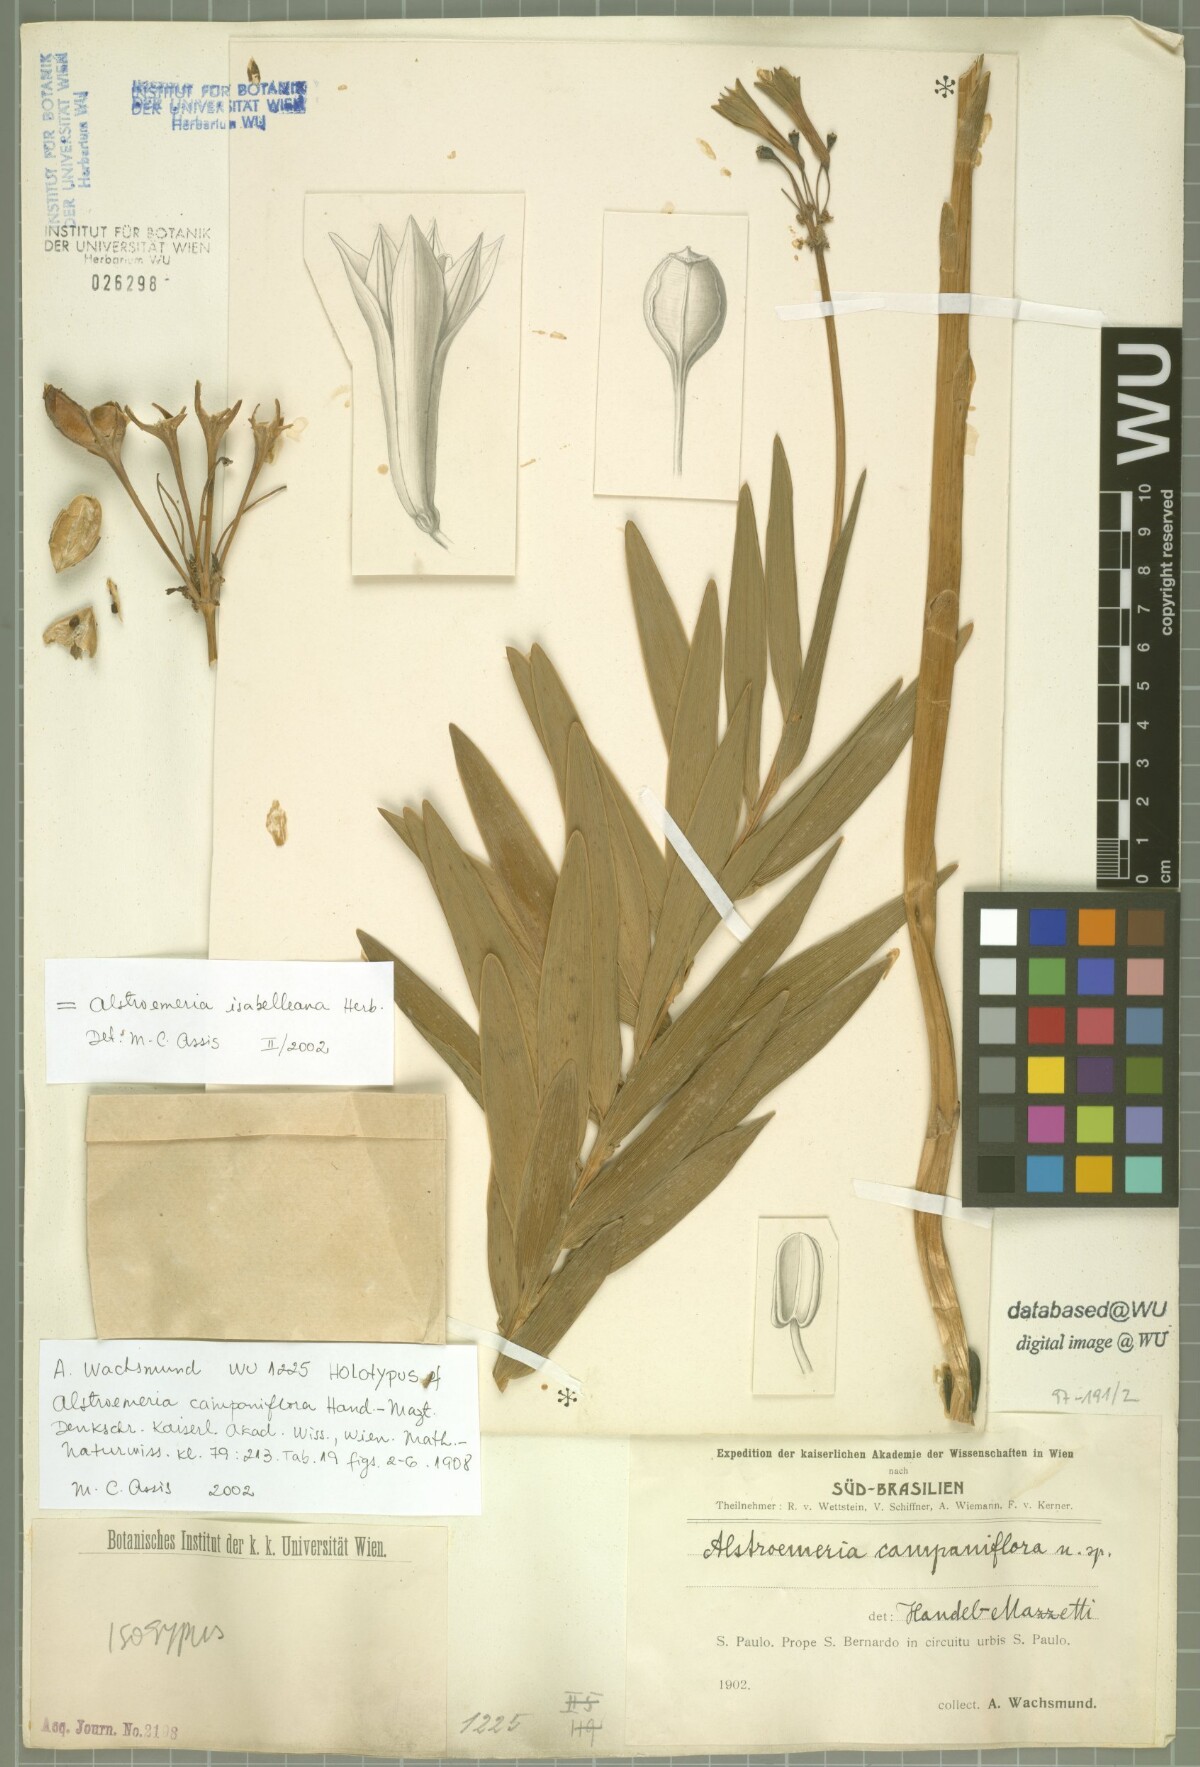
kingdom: Plantae
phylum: Tracheophyta
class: Liliopsida
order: Liliales
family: Alstroemeriaceae
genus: Alstroemeria
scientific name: Alstroemeria isabelleana
